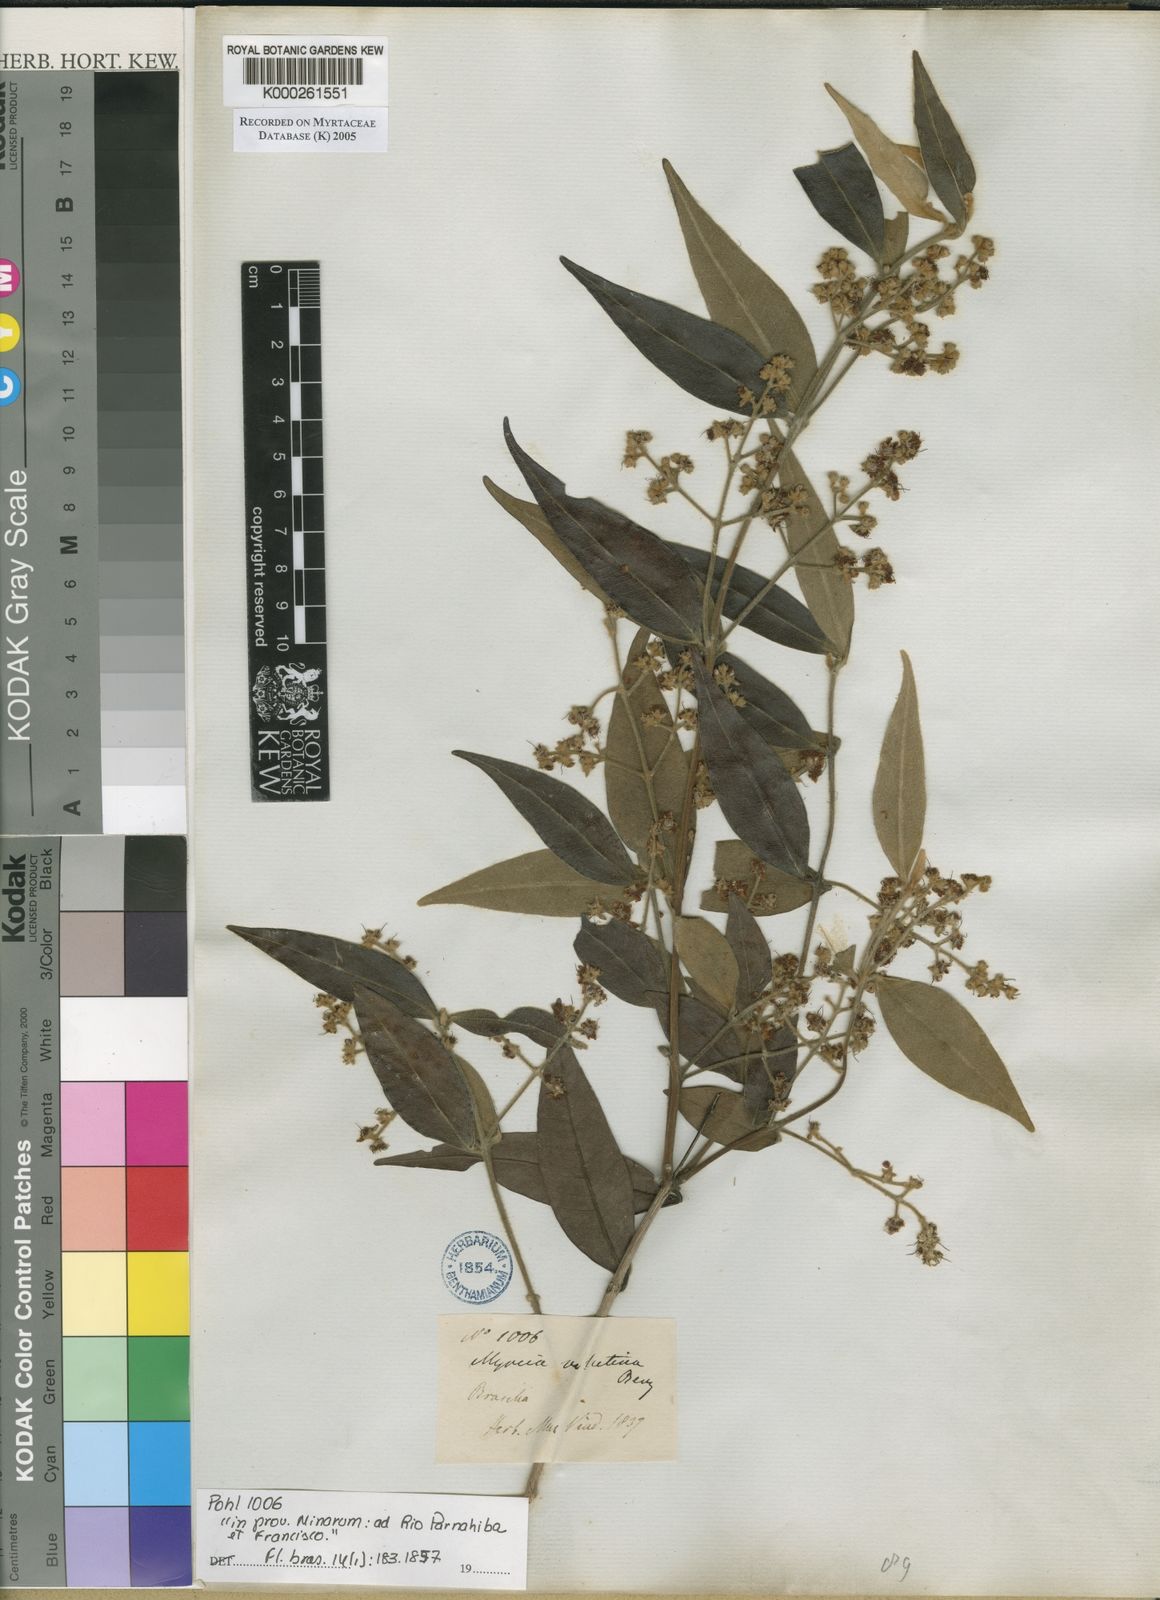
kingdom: Plantae
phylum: Tracheophyta
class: Magnoliopsida
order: Myrtales
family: Myrtaceae
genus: Myrcia
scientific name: Myrcia splendens
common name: Surinam cherry
